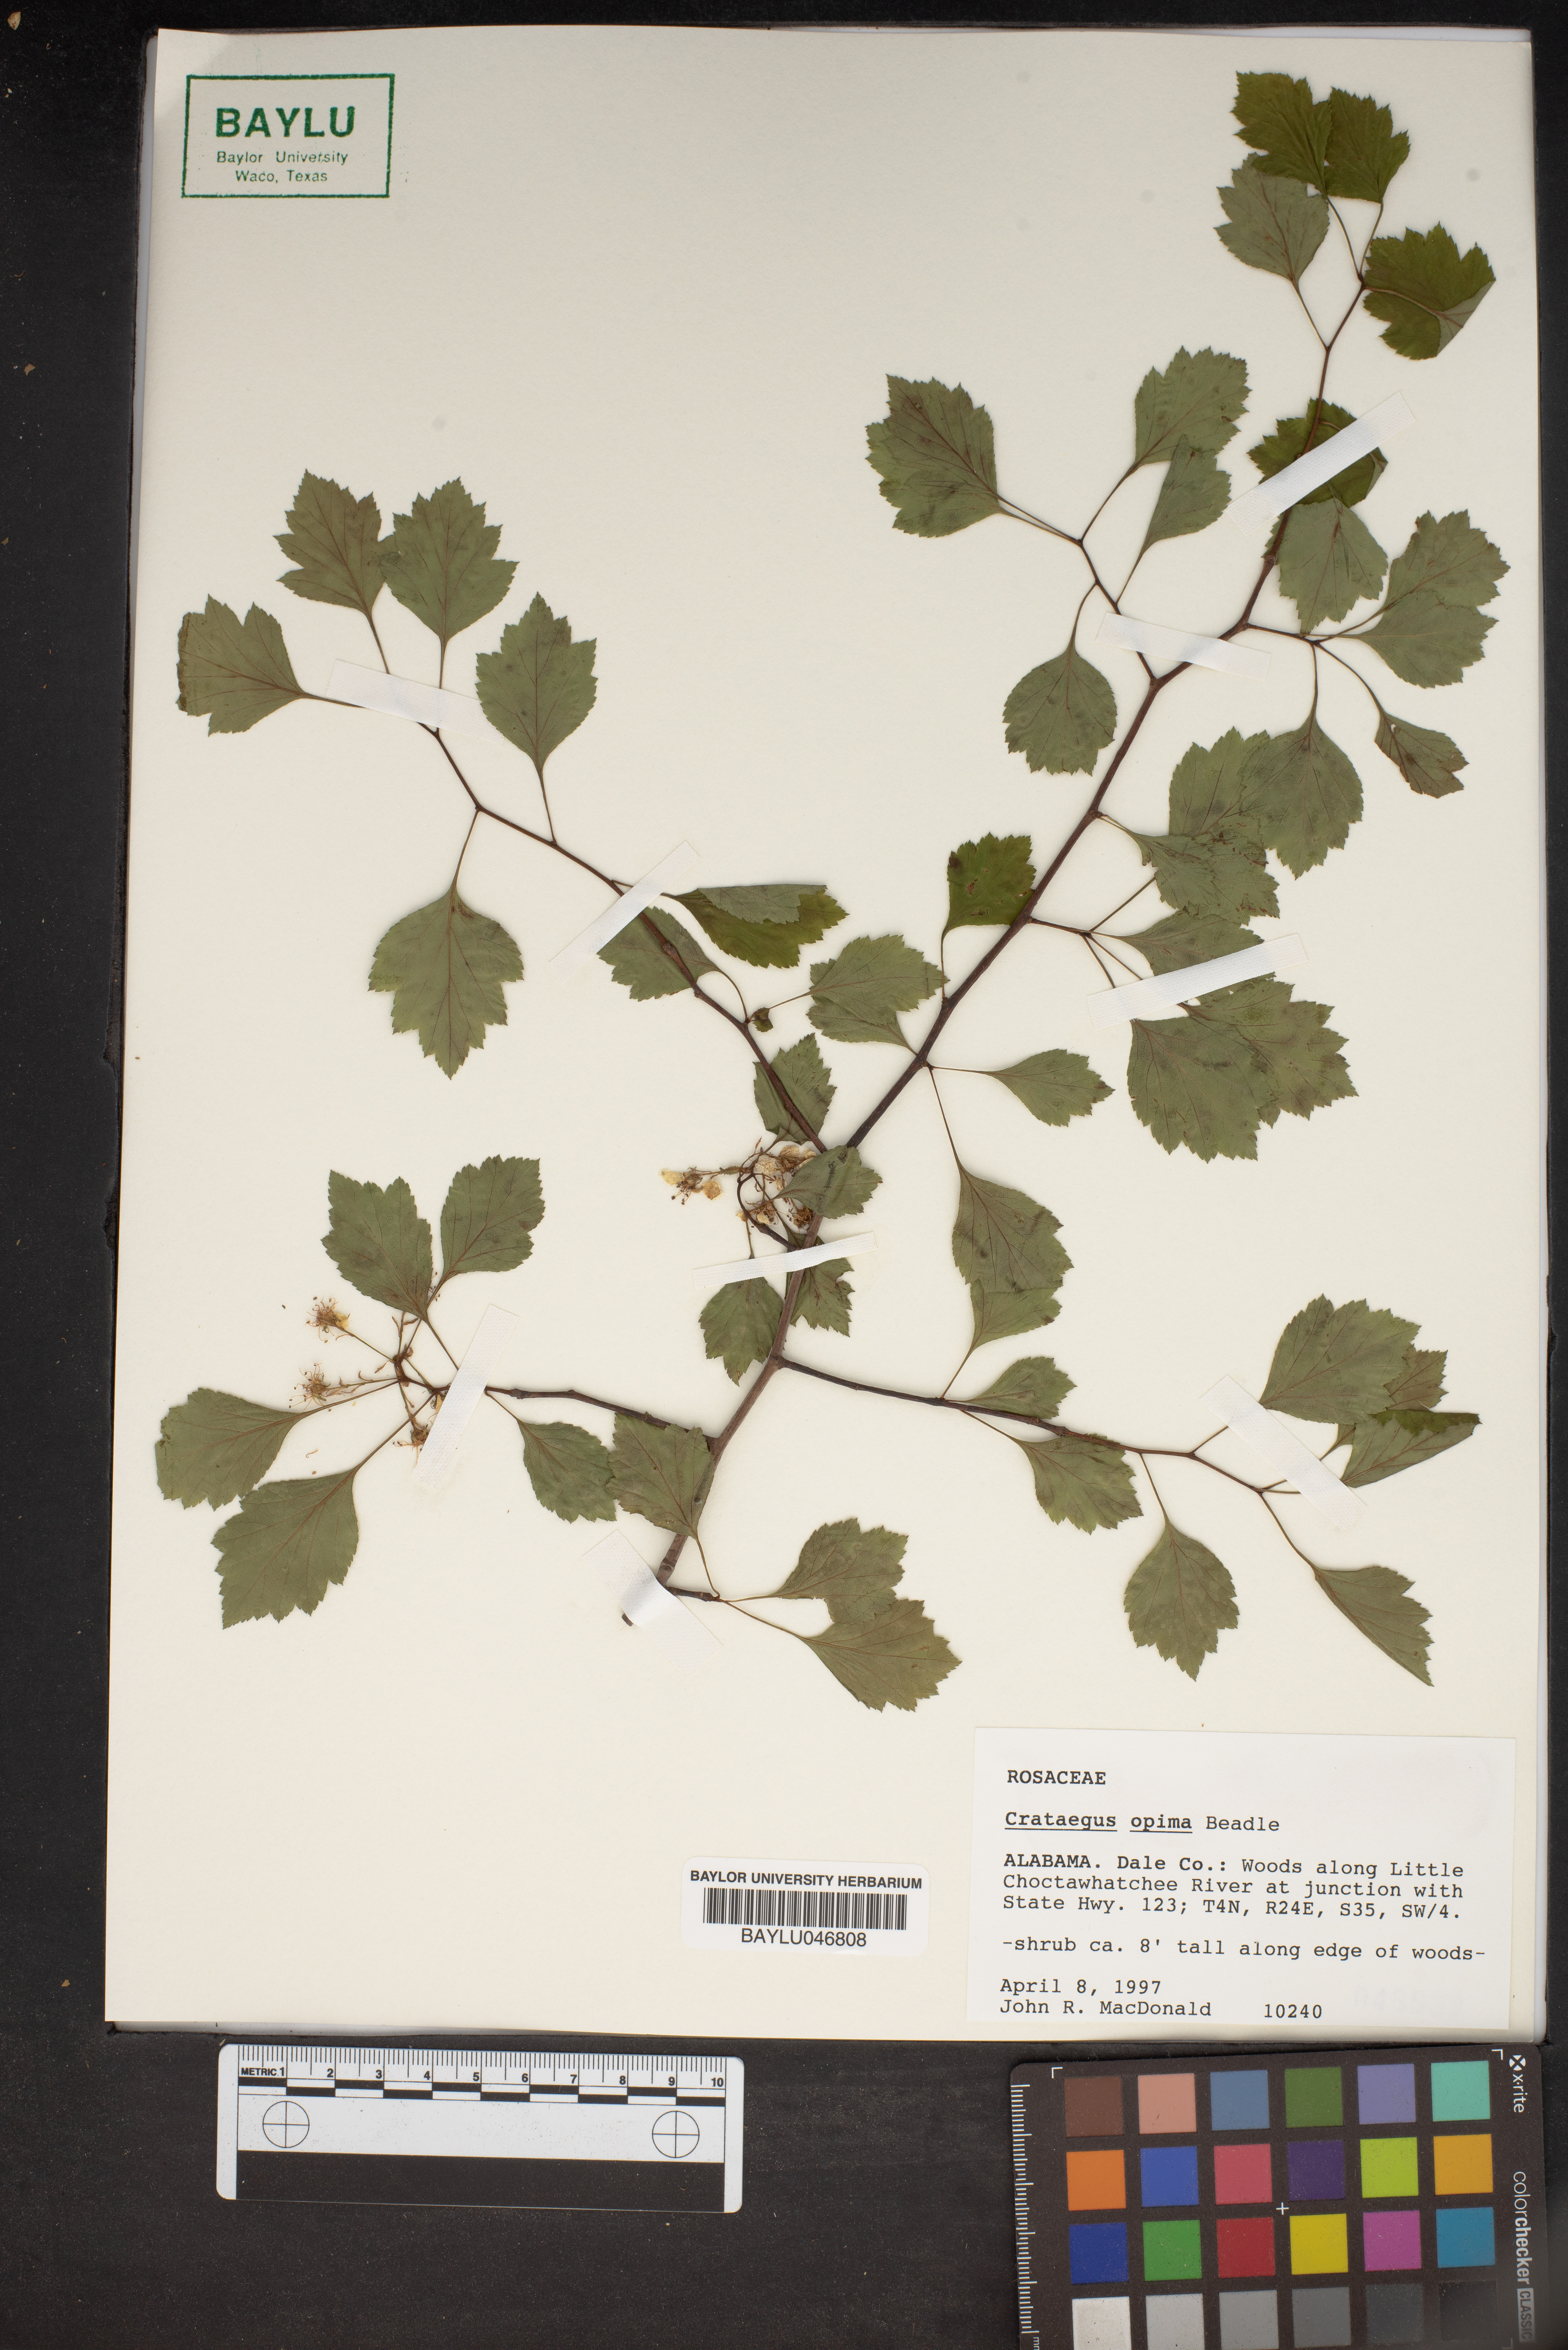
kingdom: Plantae
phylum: Tracheophyta
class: Magnoliopsida
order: Rosales
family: Rosaceae
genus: Crataegus
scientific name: Crataegus pulcherrima
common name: Beautiful hawthorn
